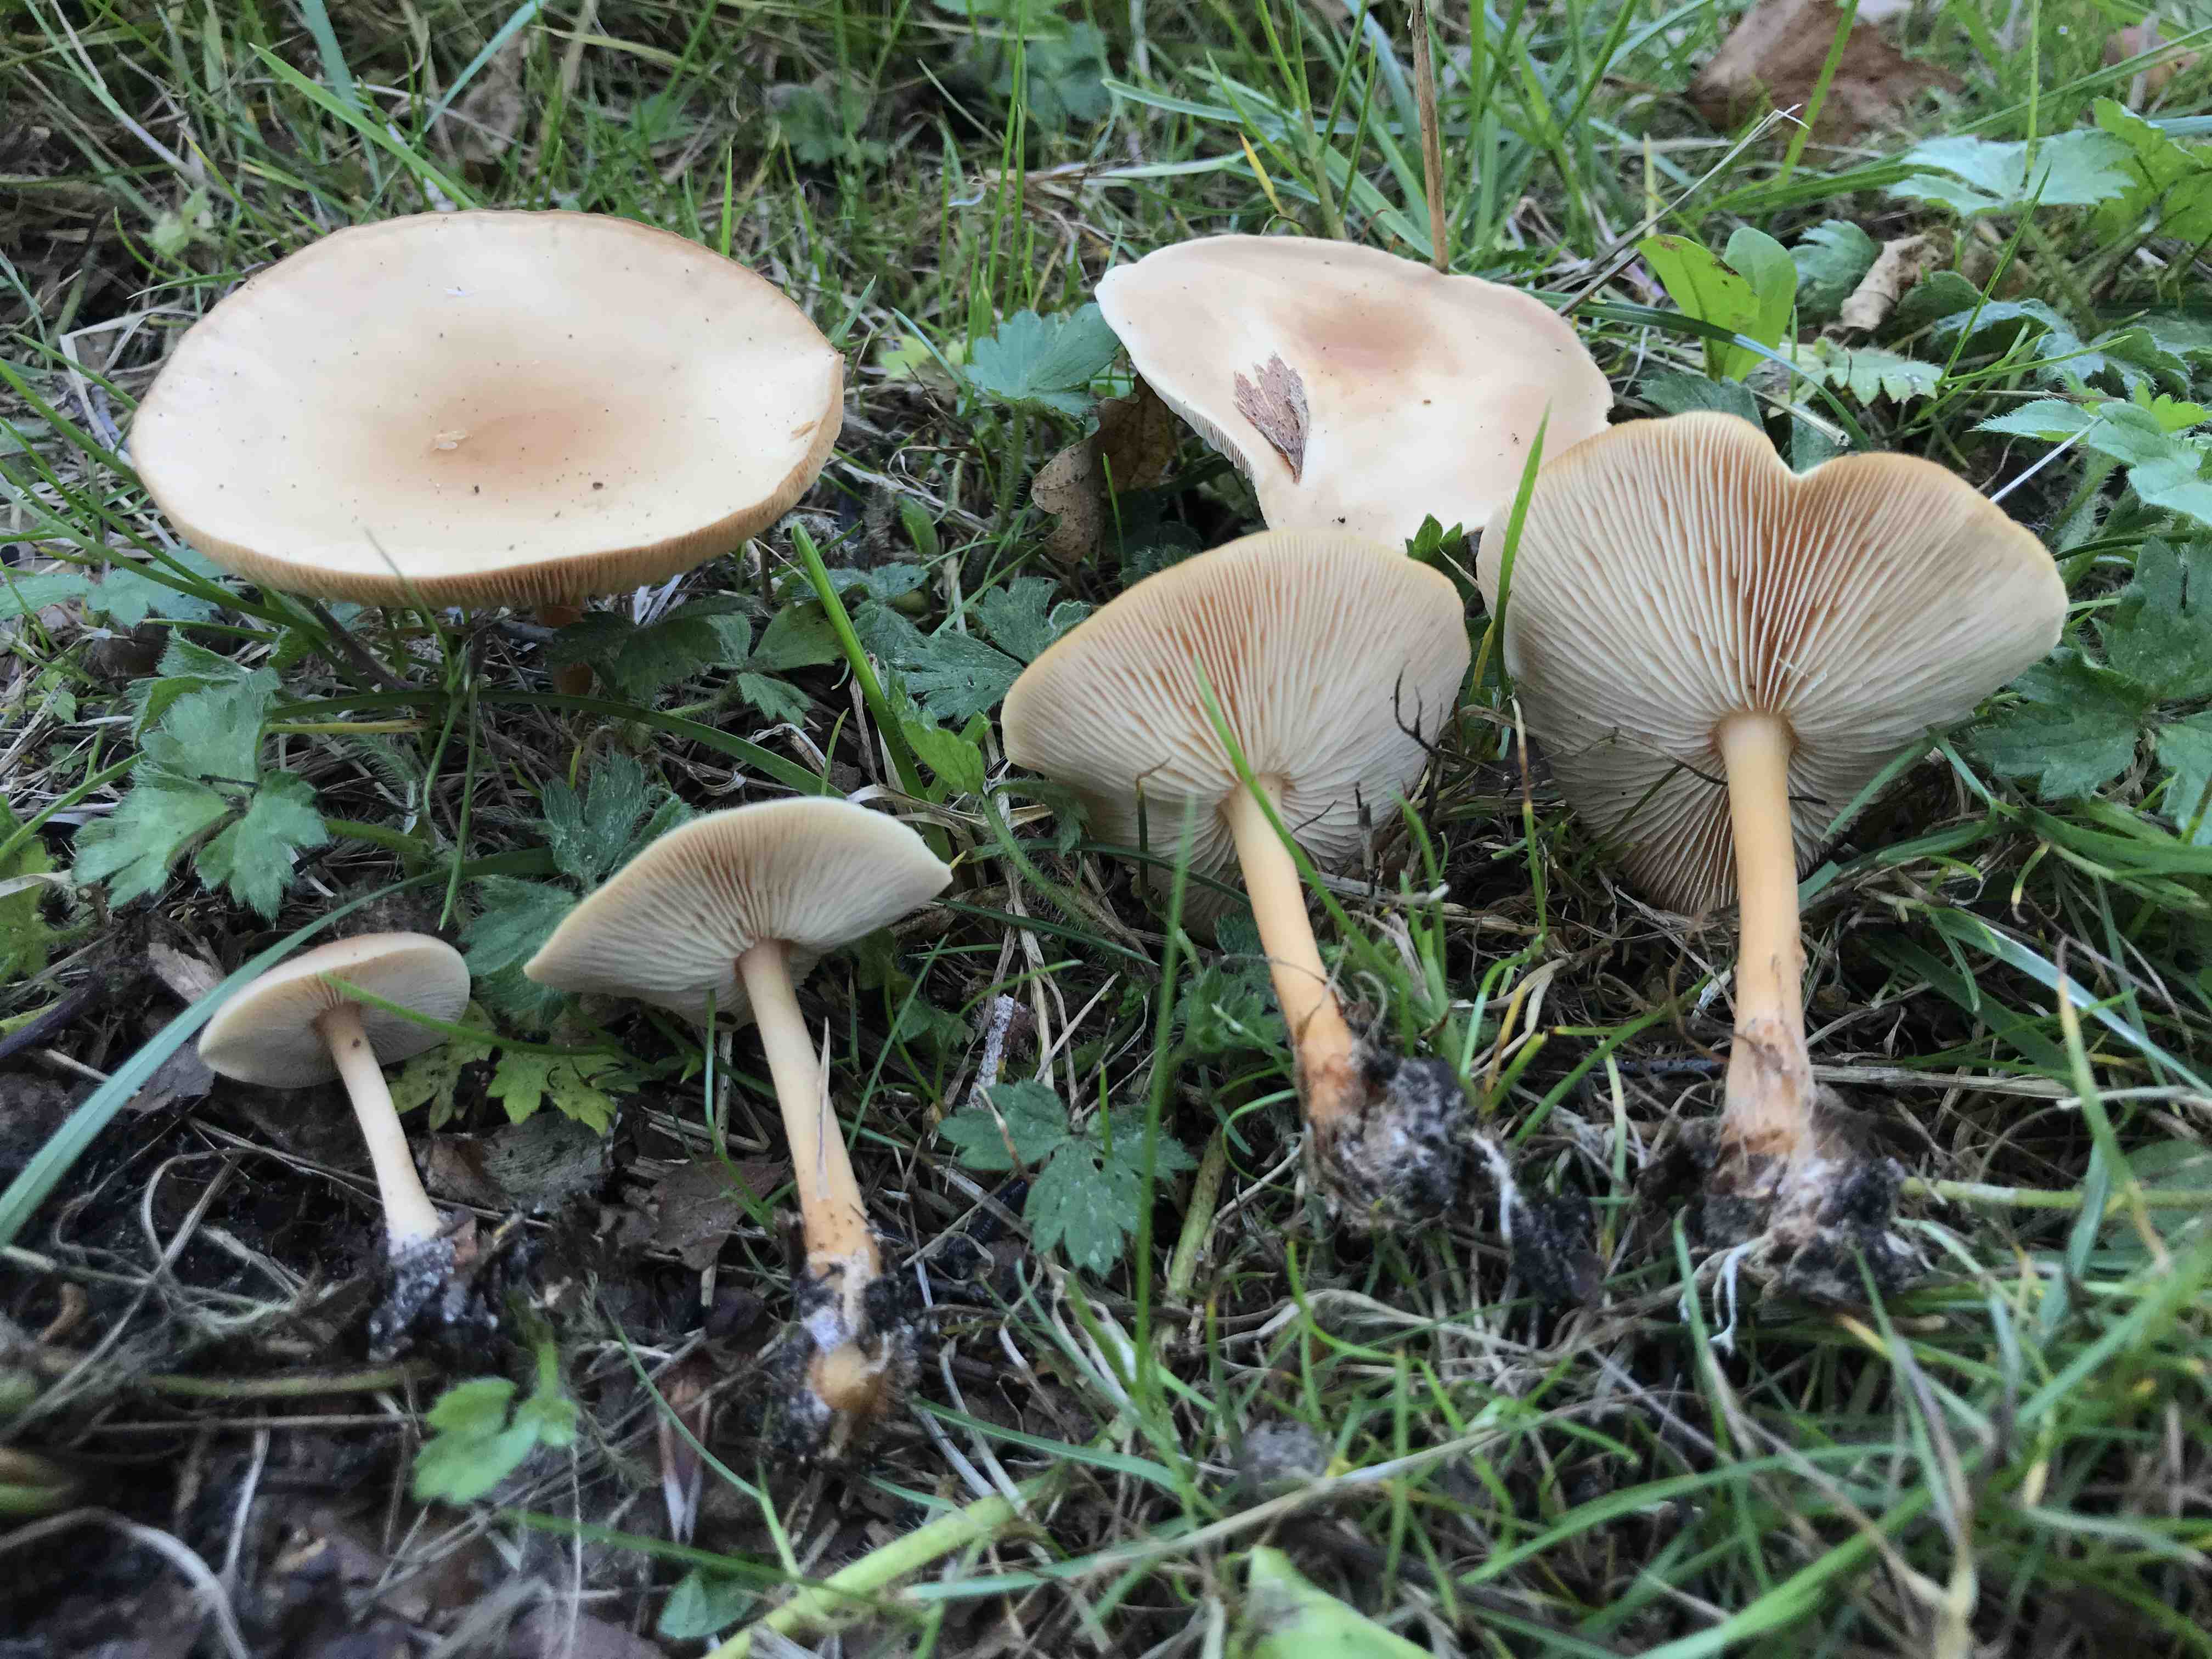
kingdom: Fungi
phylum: Basidiomycota
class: Agaricomycetes
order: Agaricales
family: Omphalotaceae
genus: Gymnopus
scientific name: Gymnopus dryophilus
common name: løv-fladhat
